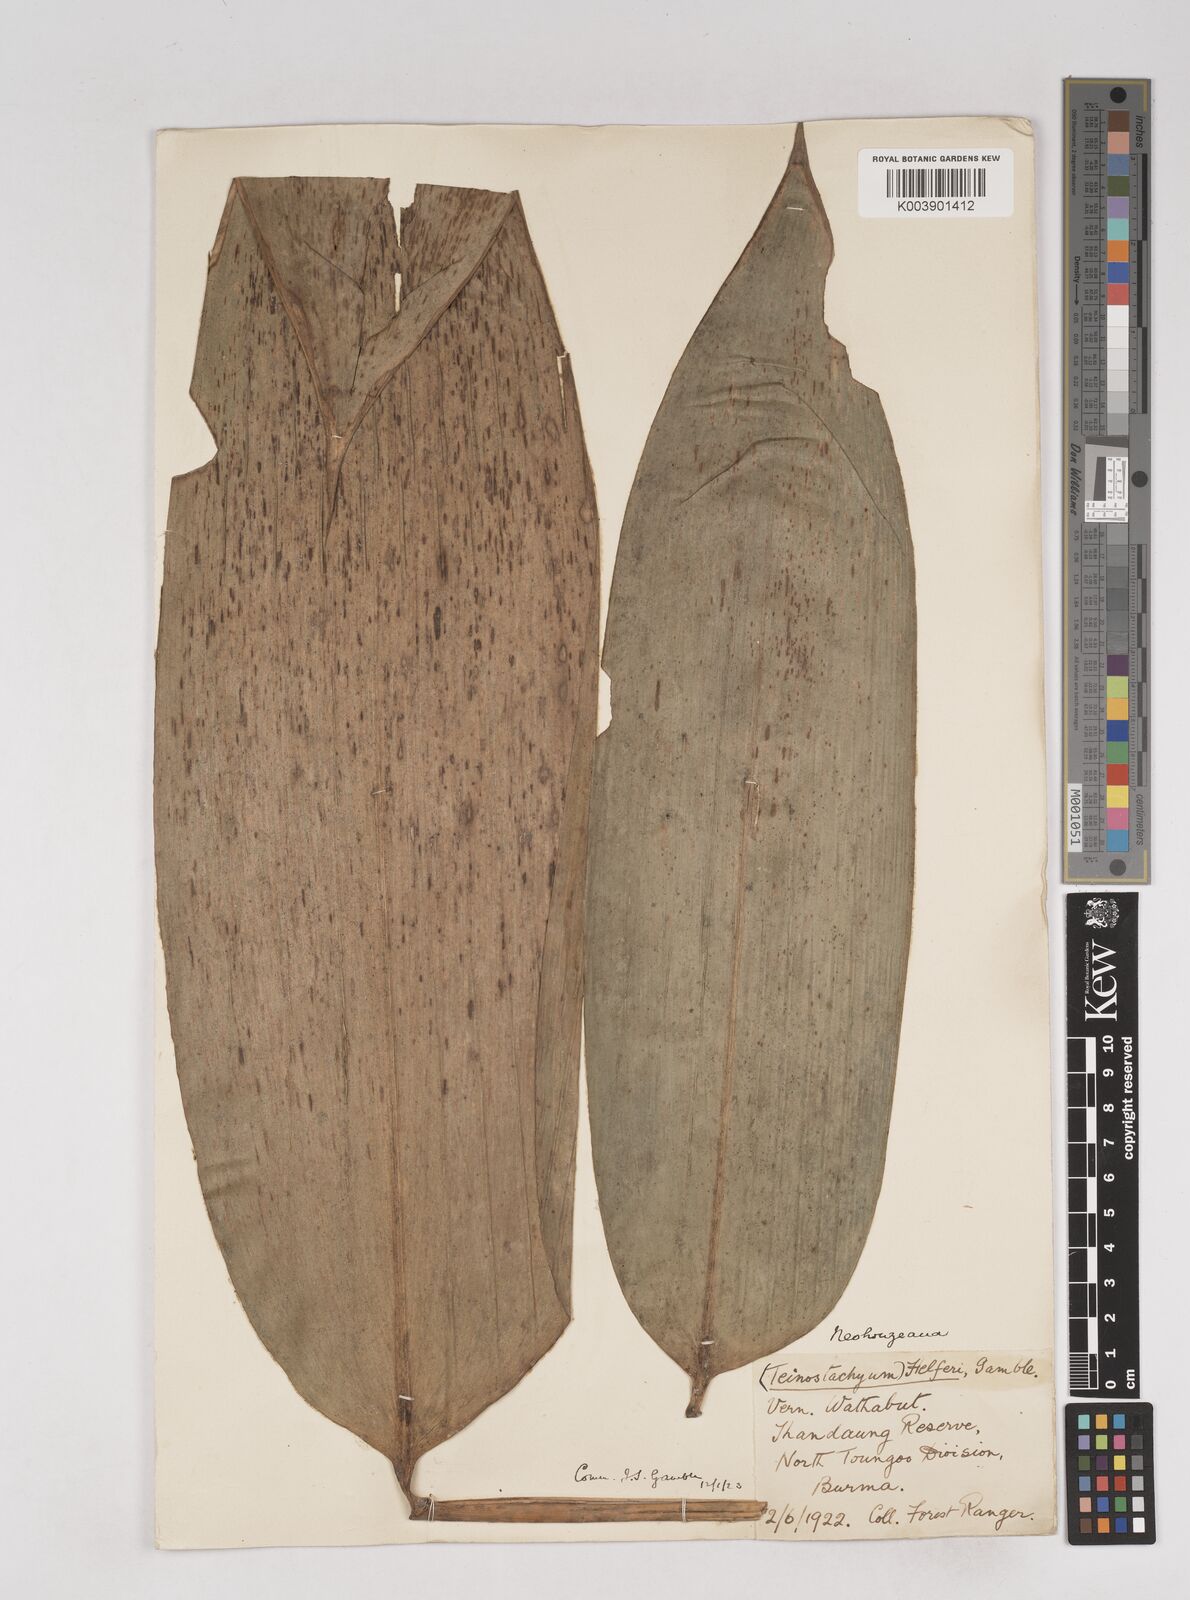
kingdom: Plantae
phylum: Tracheophyta
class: Liliopsida
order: Poales
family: Poaceae
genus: Schizostachyum
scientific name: Schizostachyum helferi
